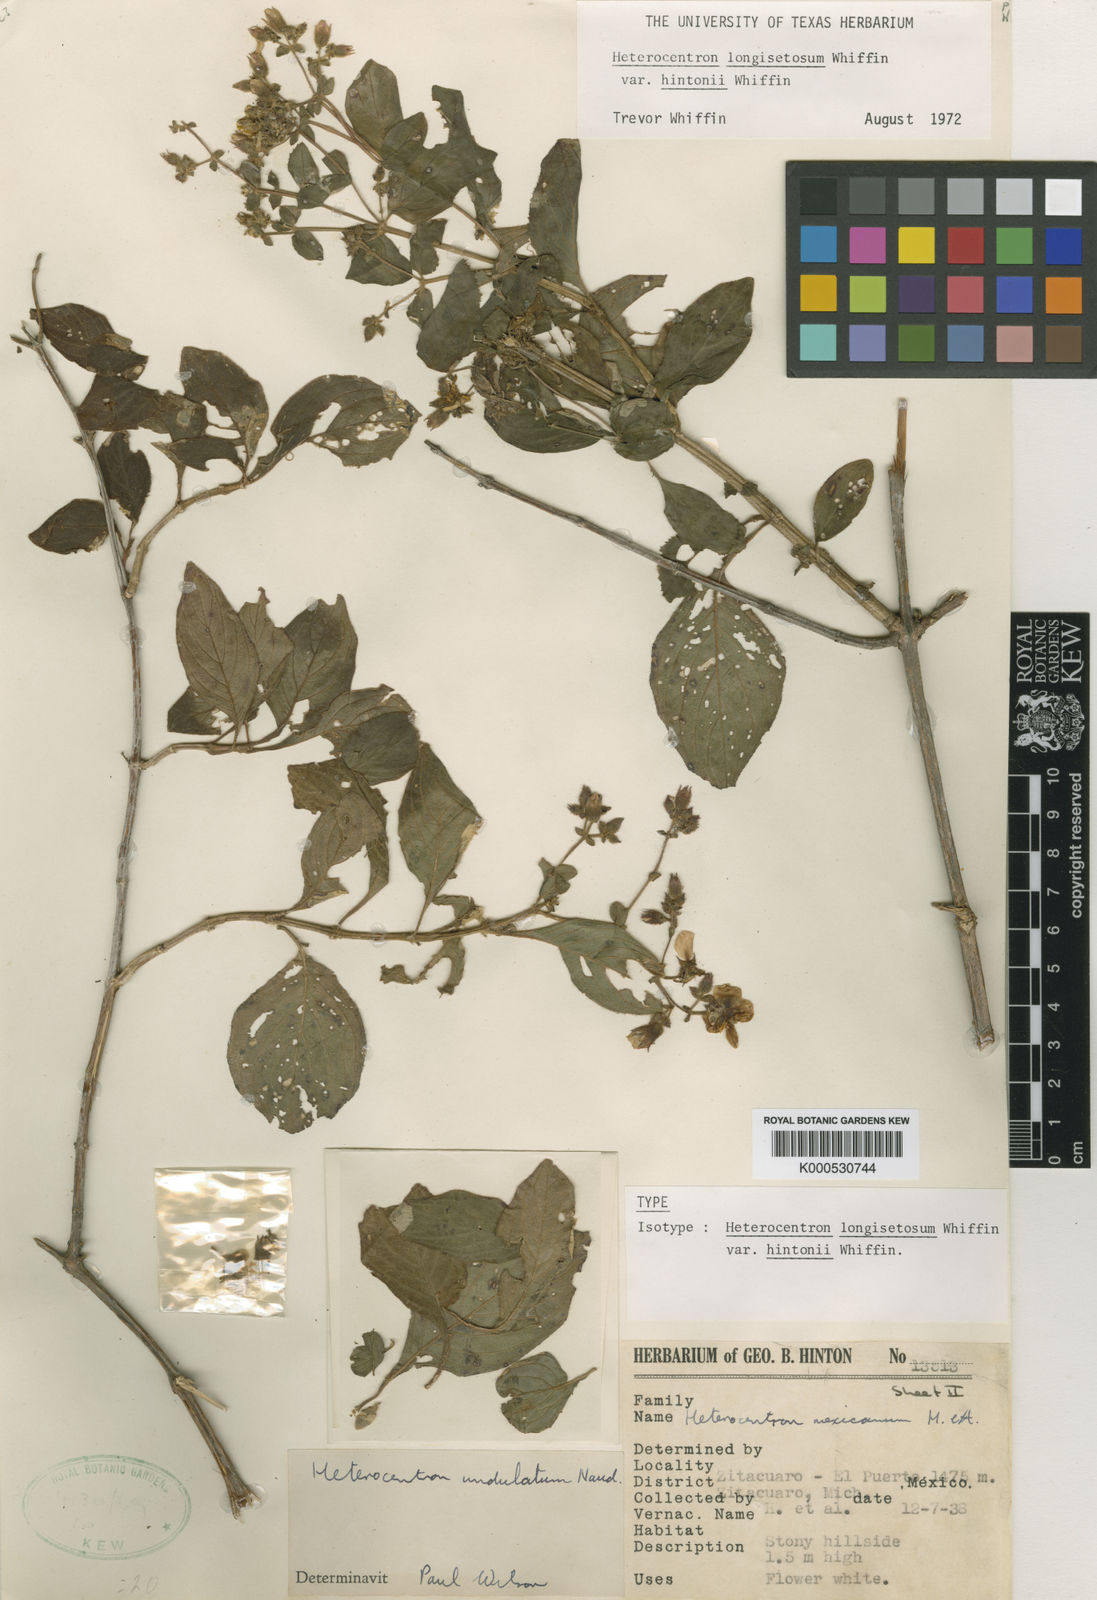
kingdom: Plantae
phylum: Tracheophyta
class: Magnoliopsida
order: Myrtales
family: Melastomataceae
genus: Heterocentron
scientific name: Heterocentron
